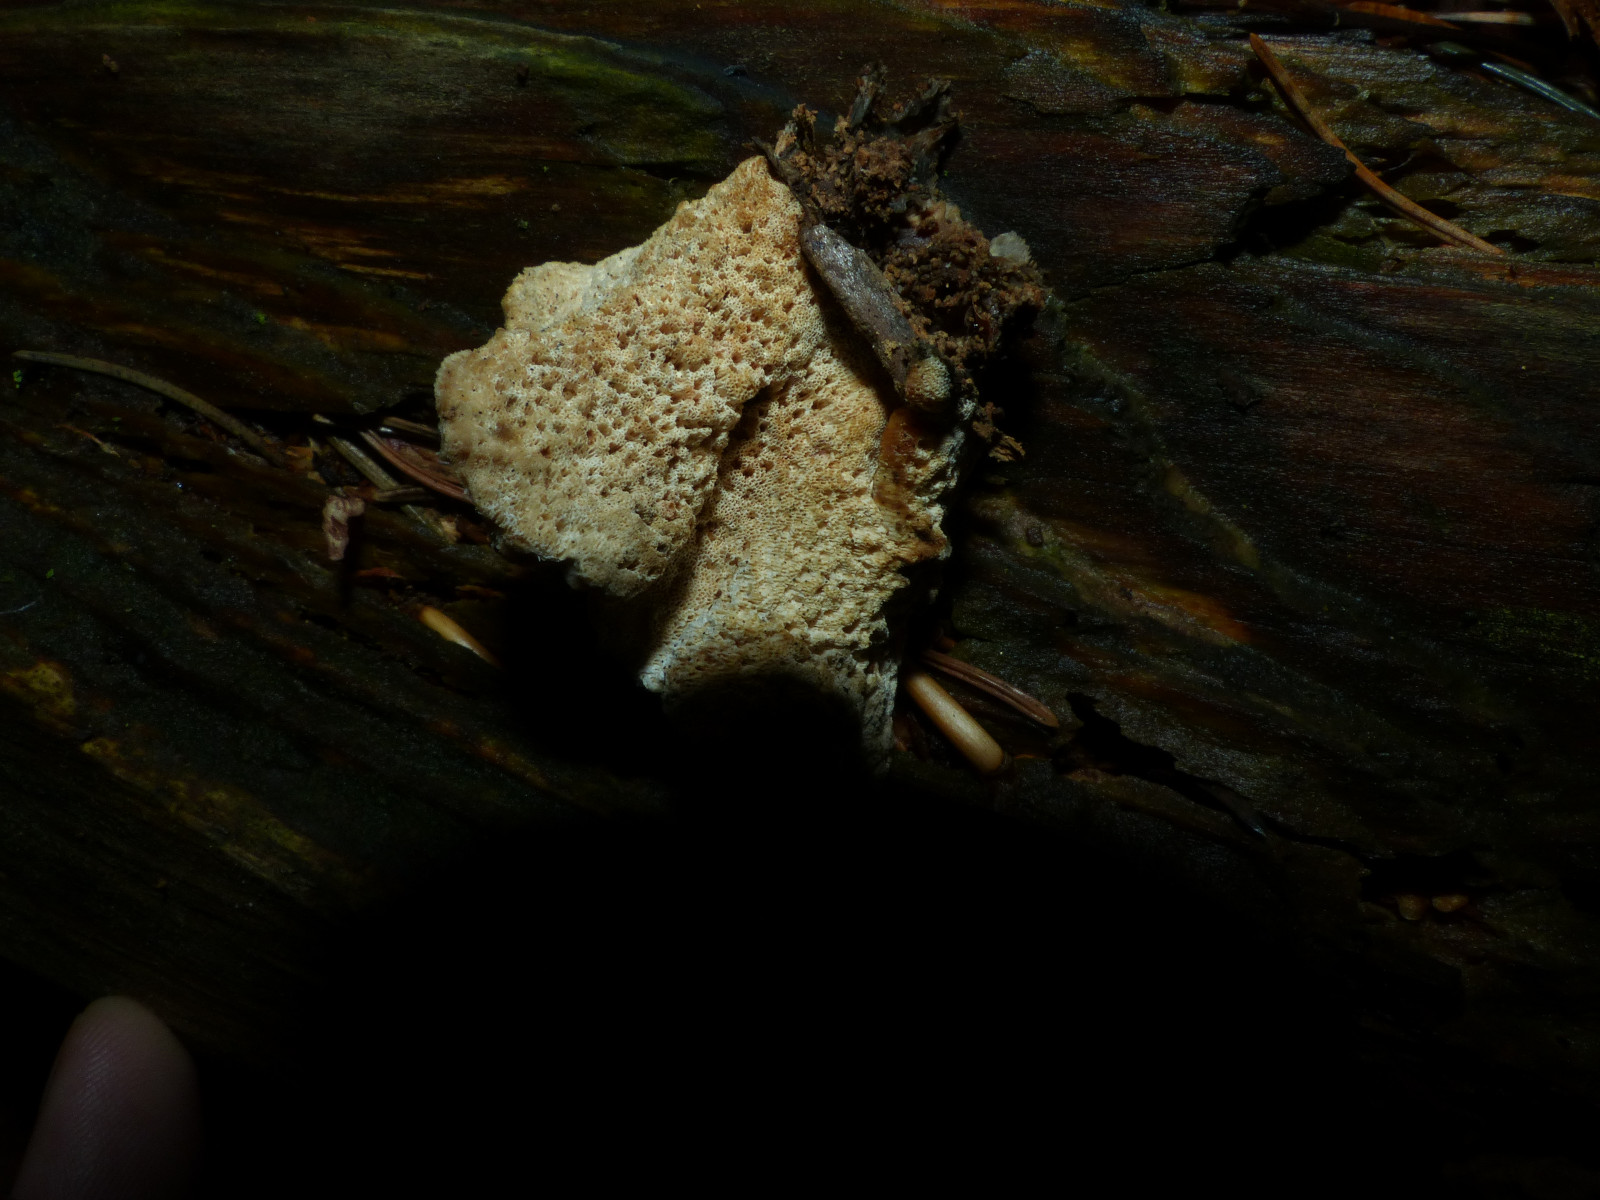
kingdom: Fungi
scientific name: Fungi
